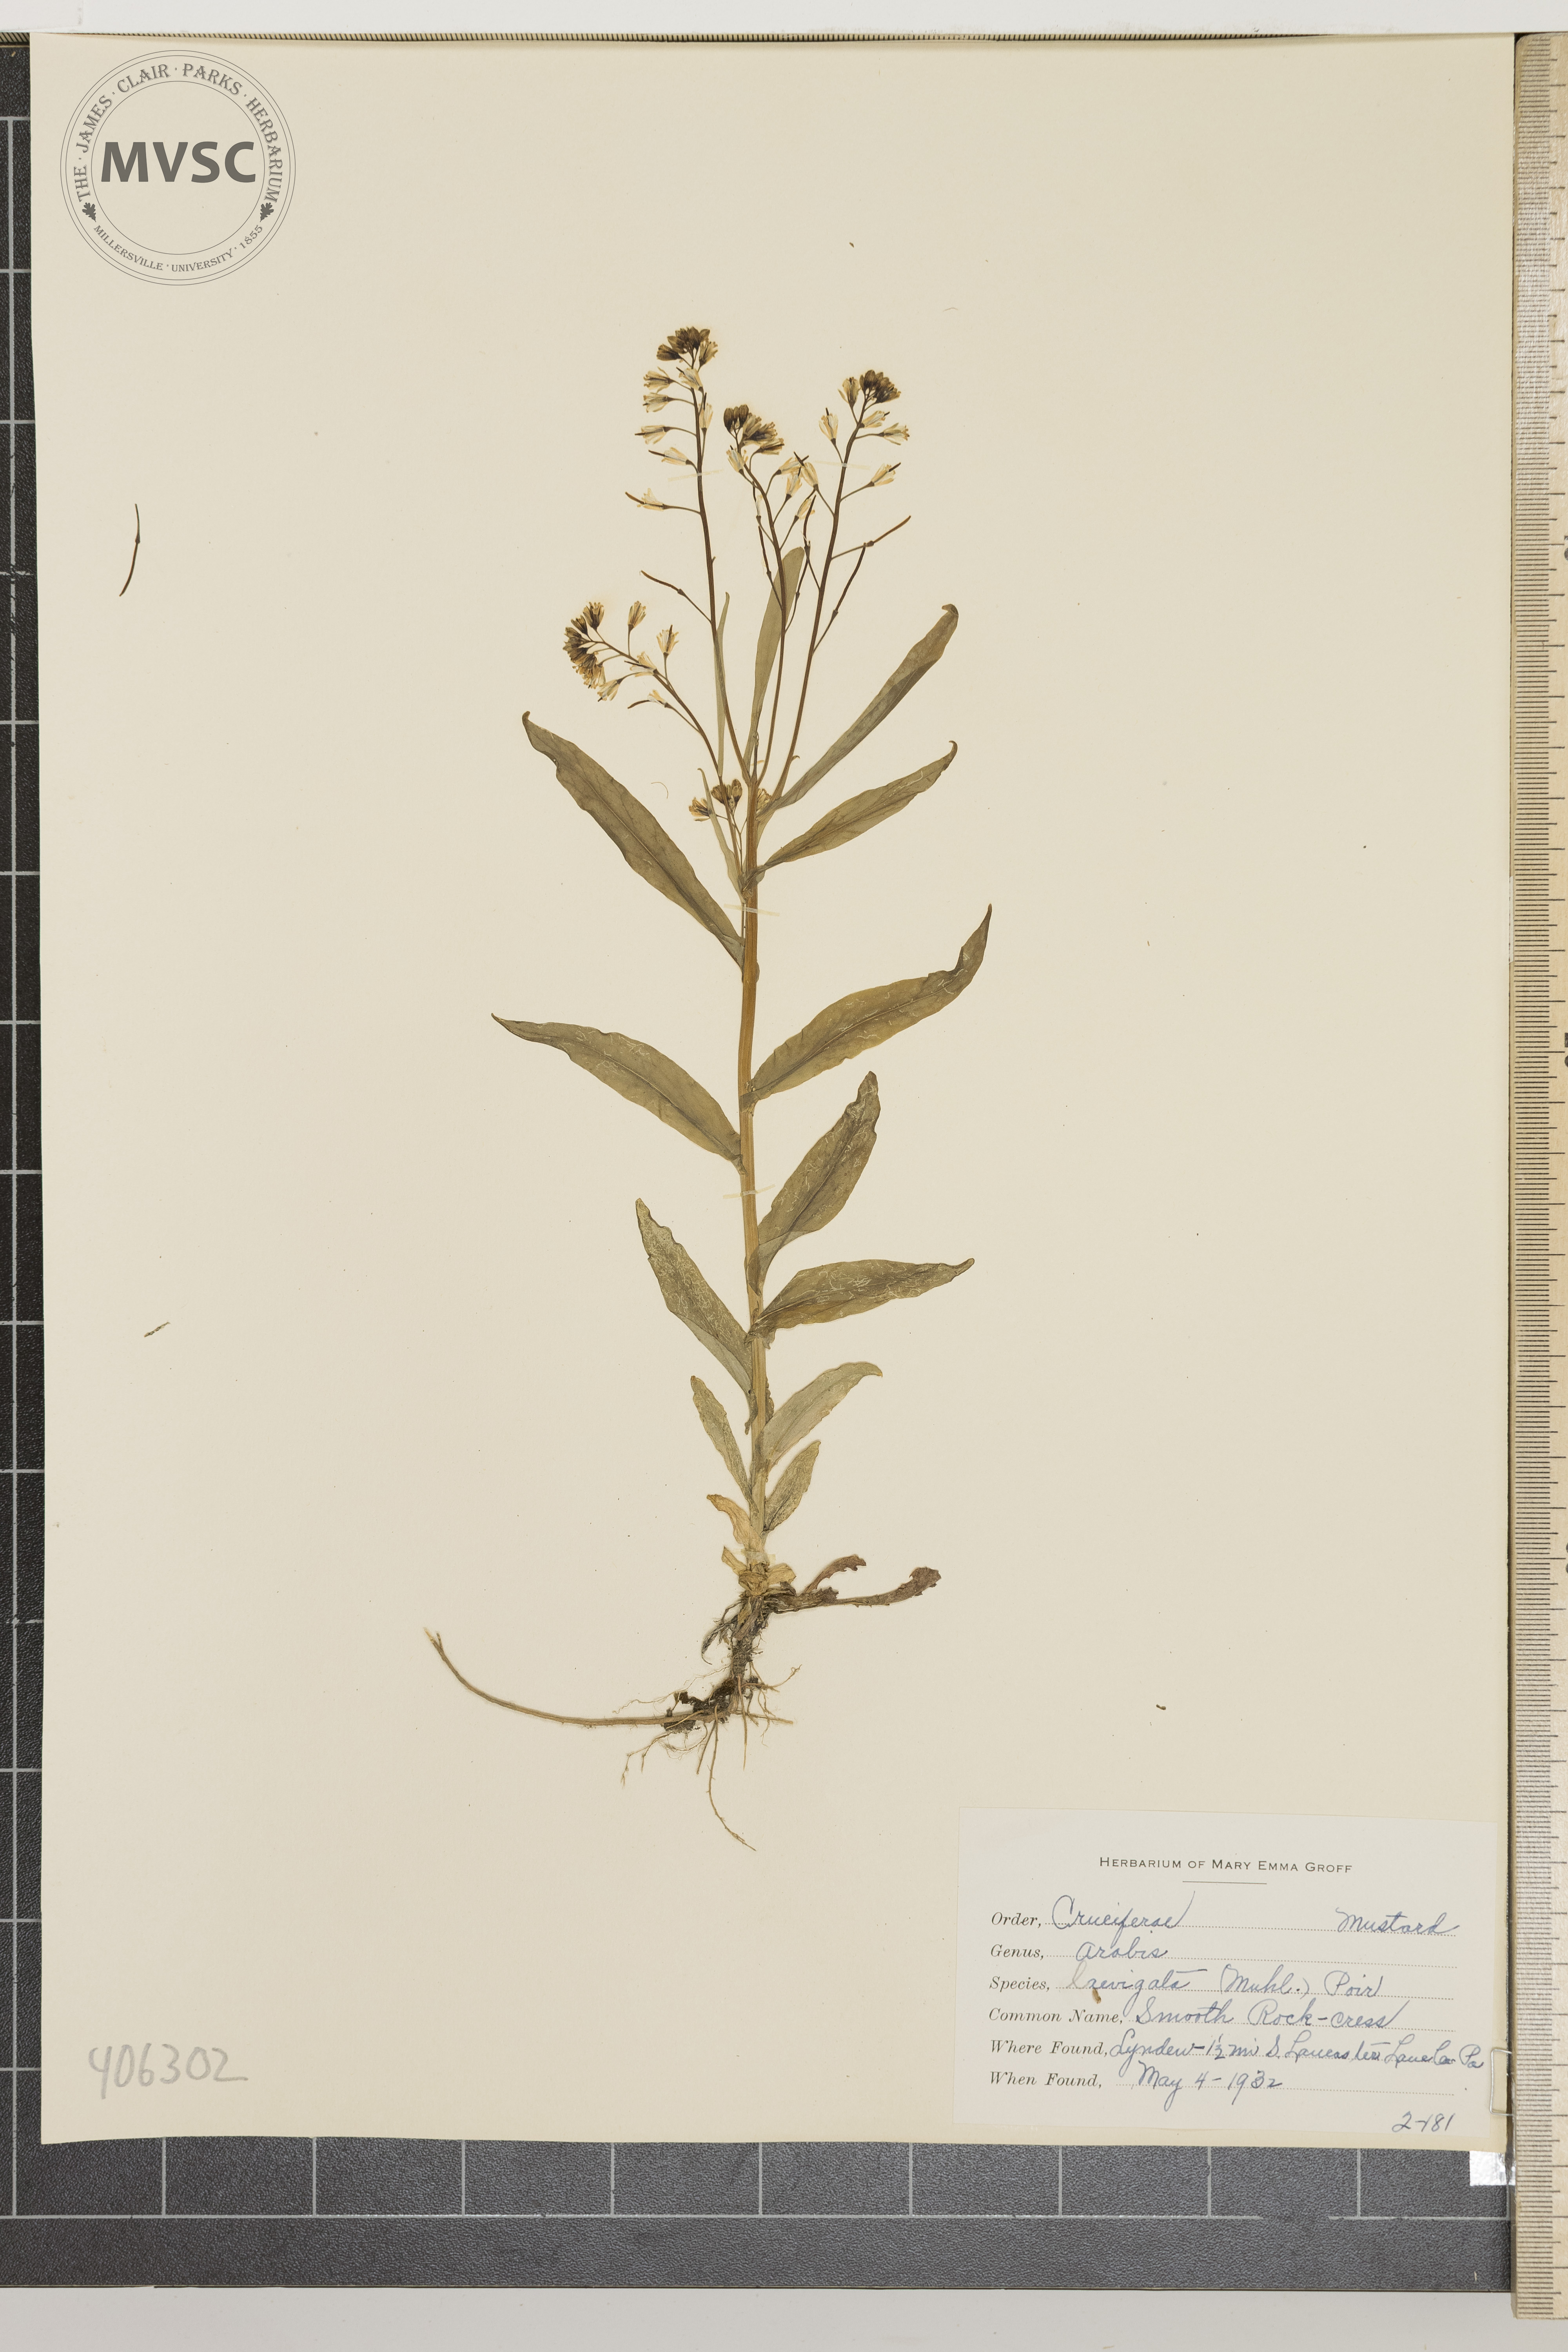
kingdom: Plantae
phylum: Tracheophyta
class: Magnoliopsida
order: Brassicales
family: Brassicaceae
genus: Arabis
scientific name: Arabis laevigata
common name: Smooth Rock-cress
